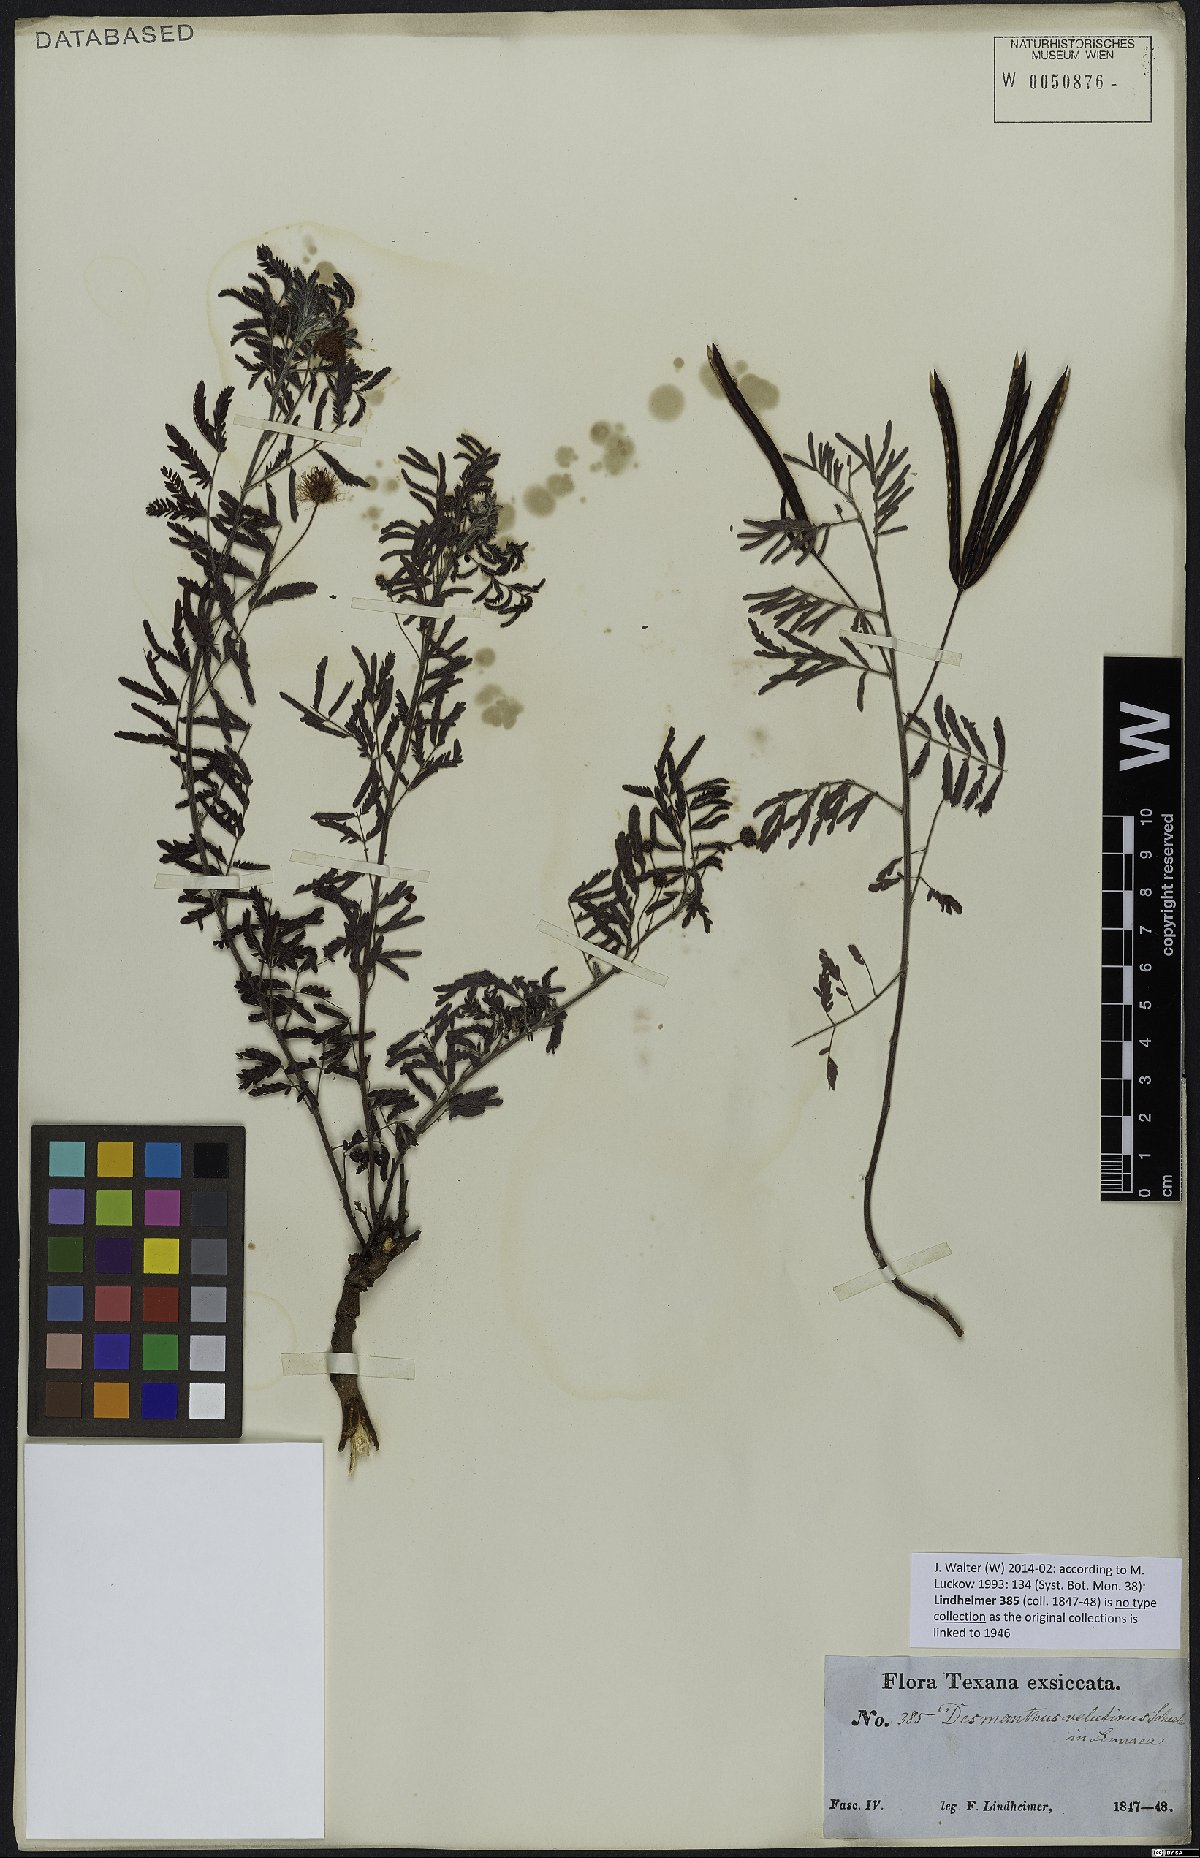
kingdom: Plantae
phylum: Tracheophyta
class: Magnoliopsida
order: Fabales
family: Fabaceae
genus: Desmanthus
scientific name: Desmanthus velutinus
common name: Velvet bundle-flower
